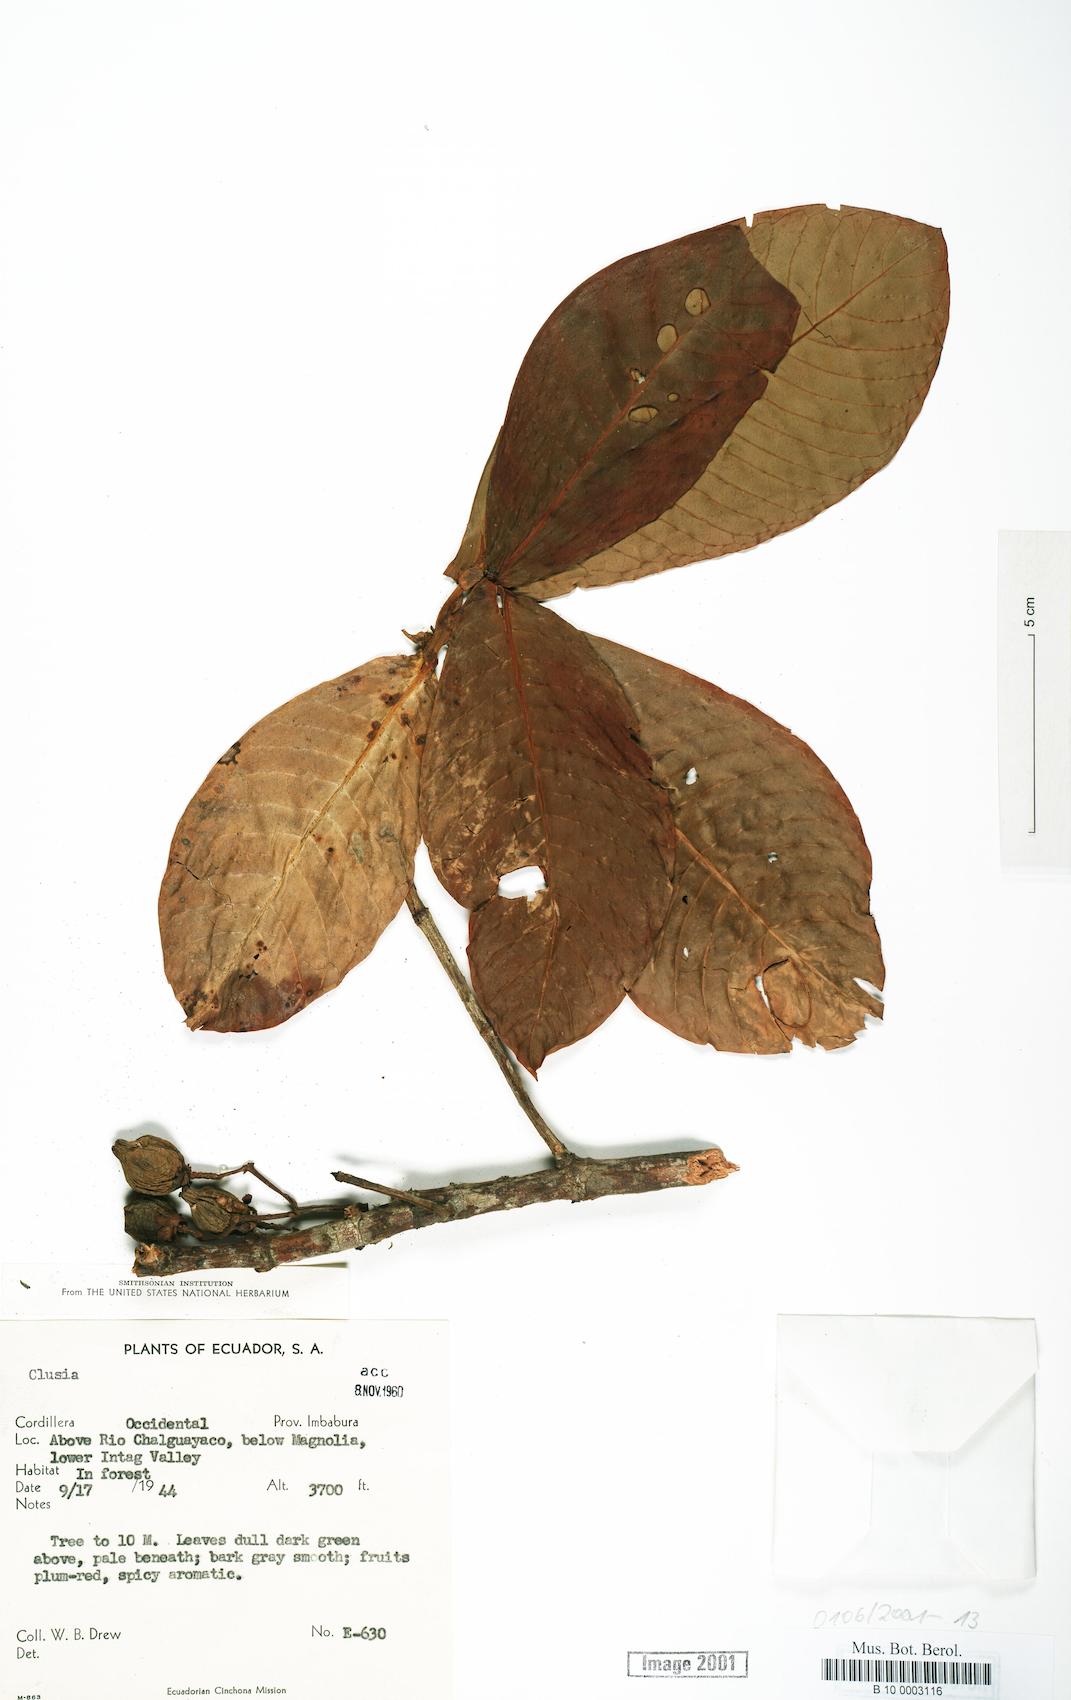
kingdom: Plantae
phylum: Tracheophyta
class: Magnoliopsida
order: Malpighiales
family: Clusiaceae
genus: Clusia
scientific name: Clusia
